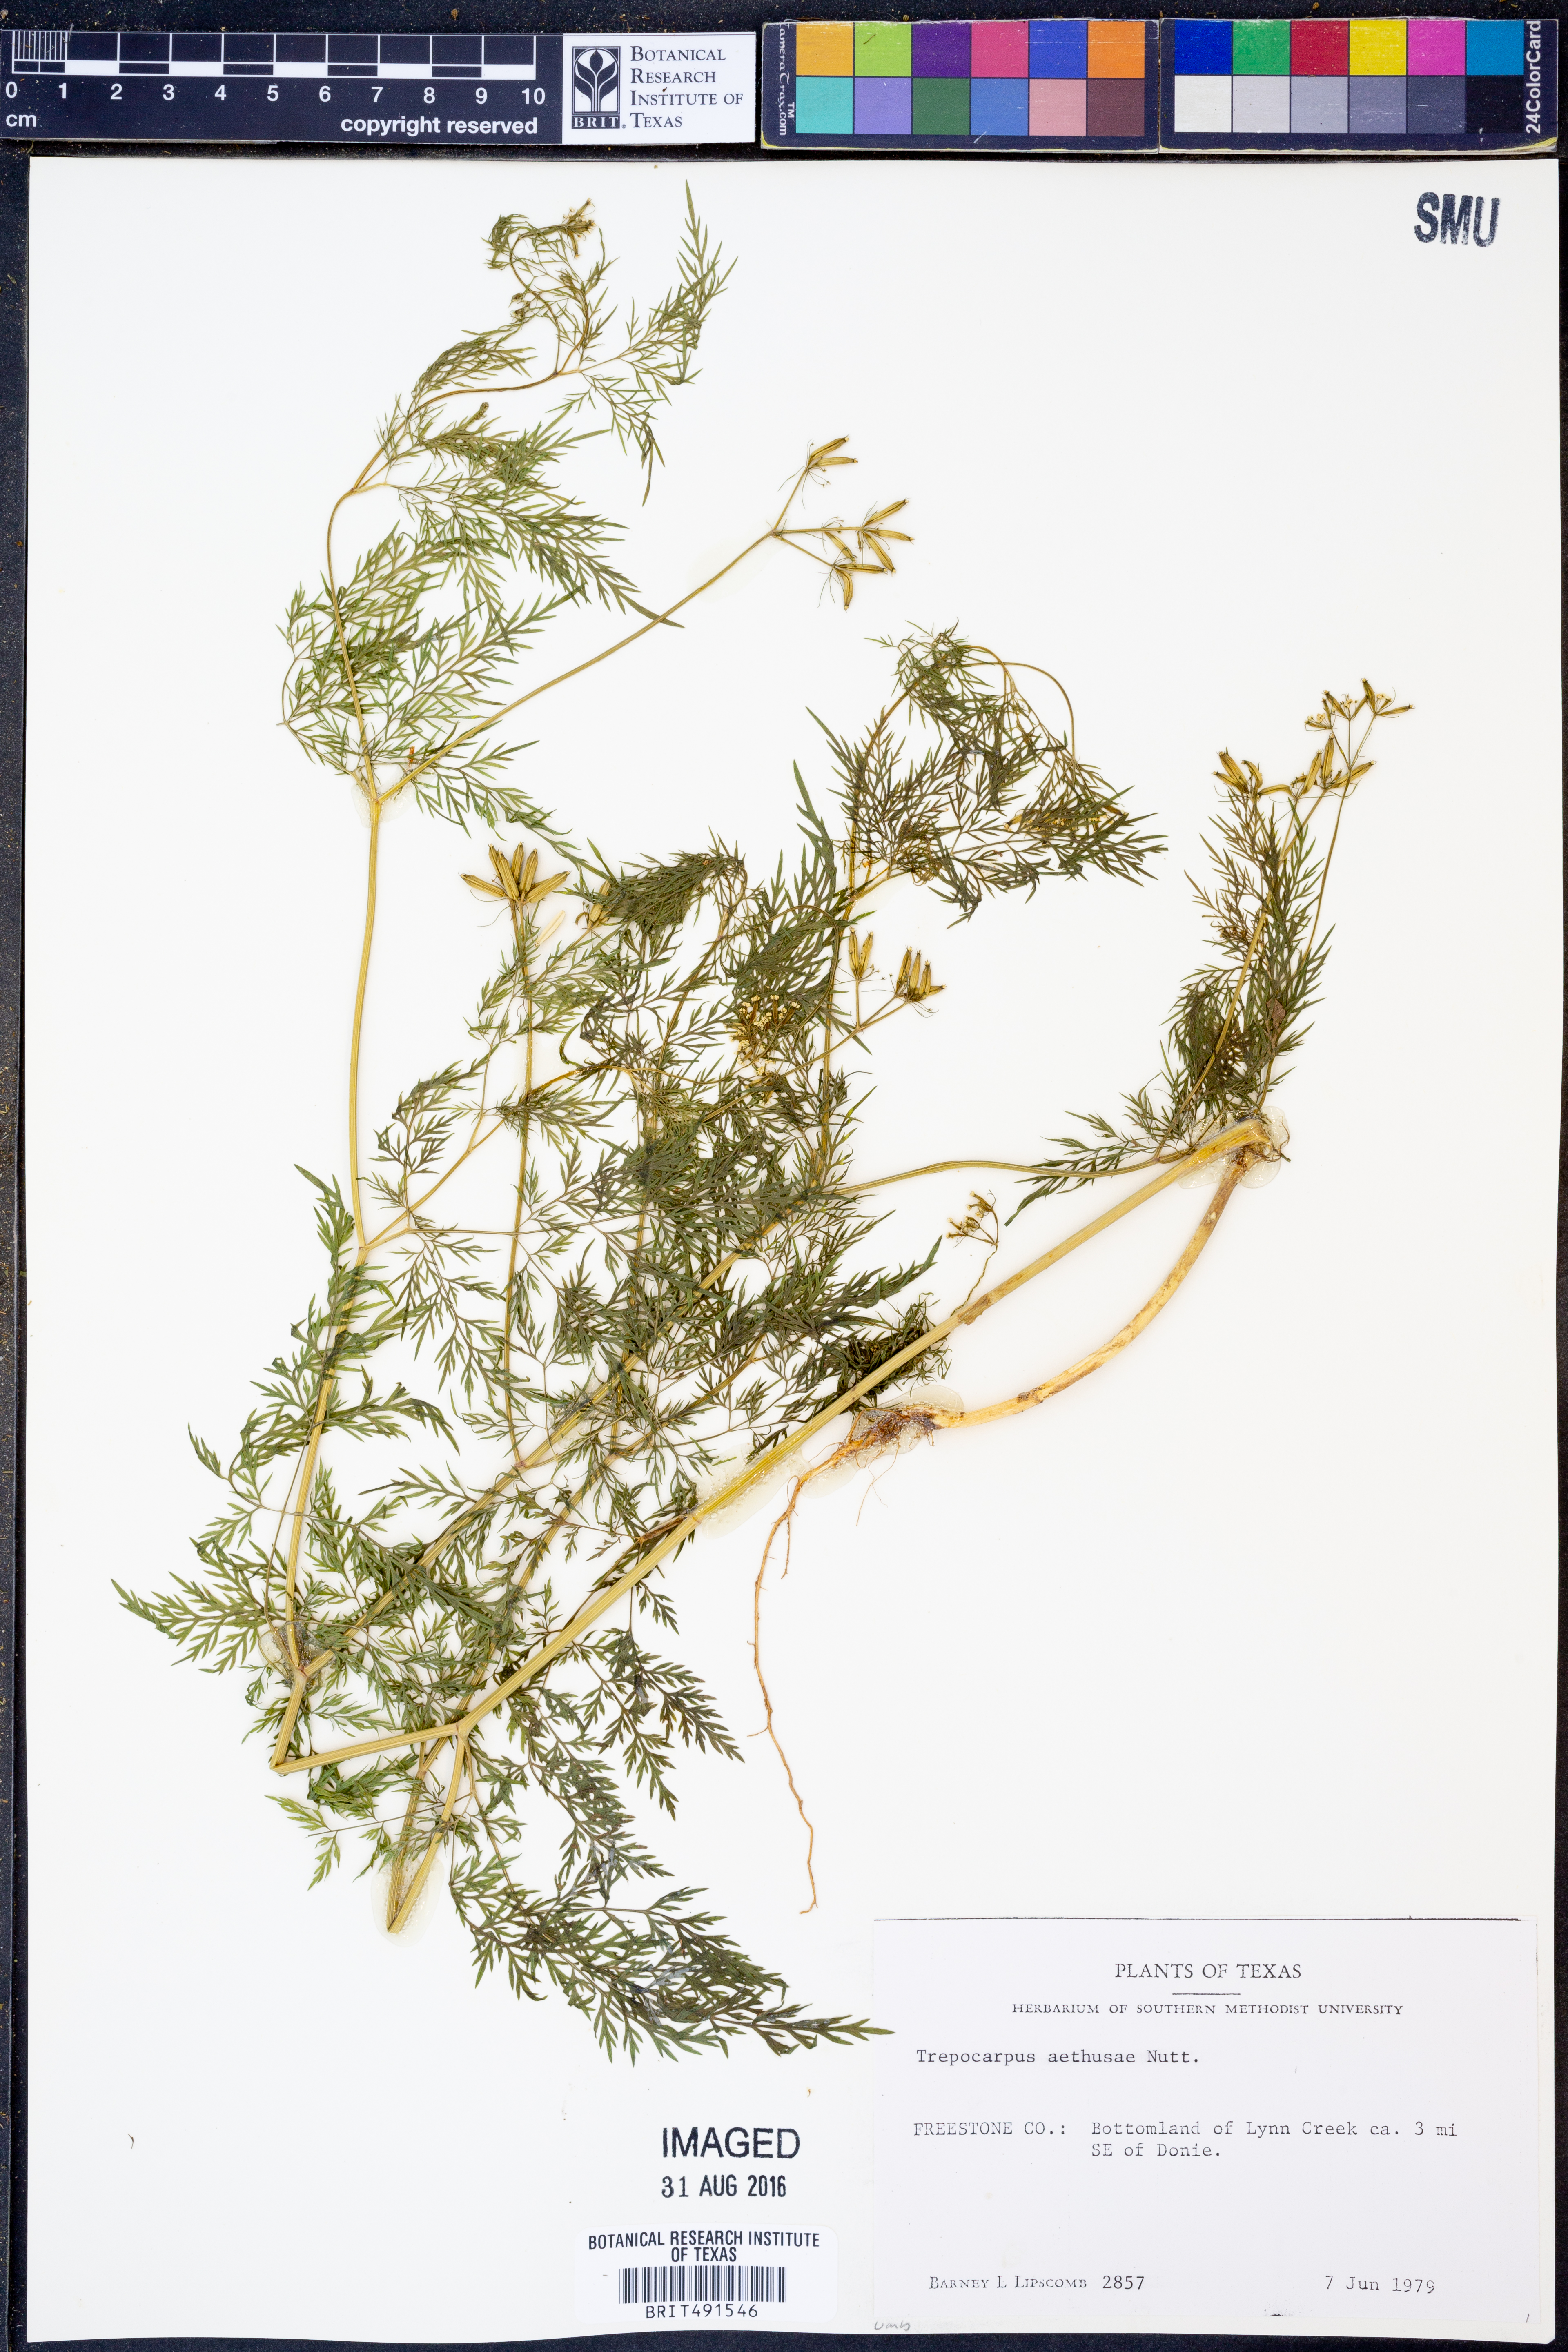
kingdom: Plantae
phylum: Tracheophyta
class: Magnoliopsida
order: Apiales
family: Apiaceae
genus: Trepocarpus
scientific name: Trepocarpus aethusae
